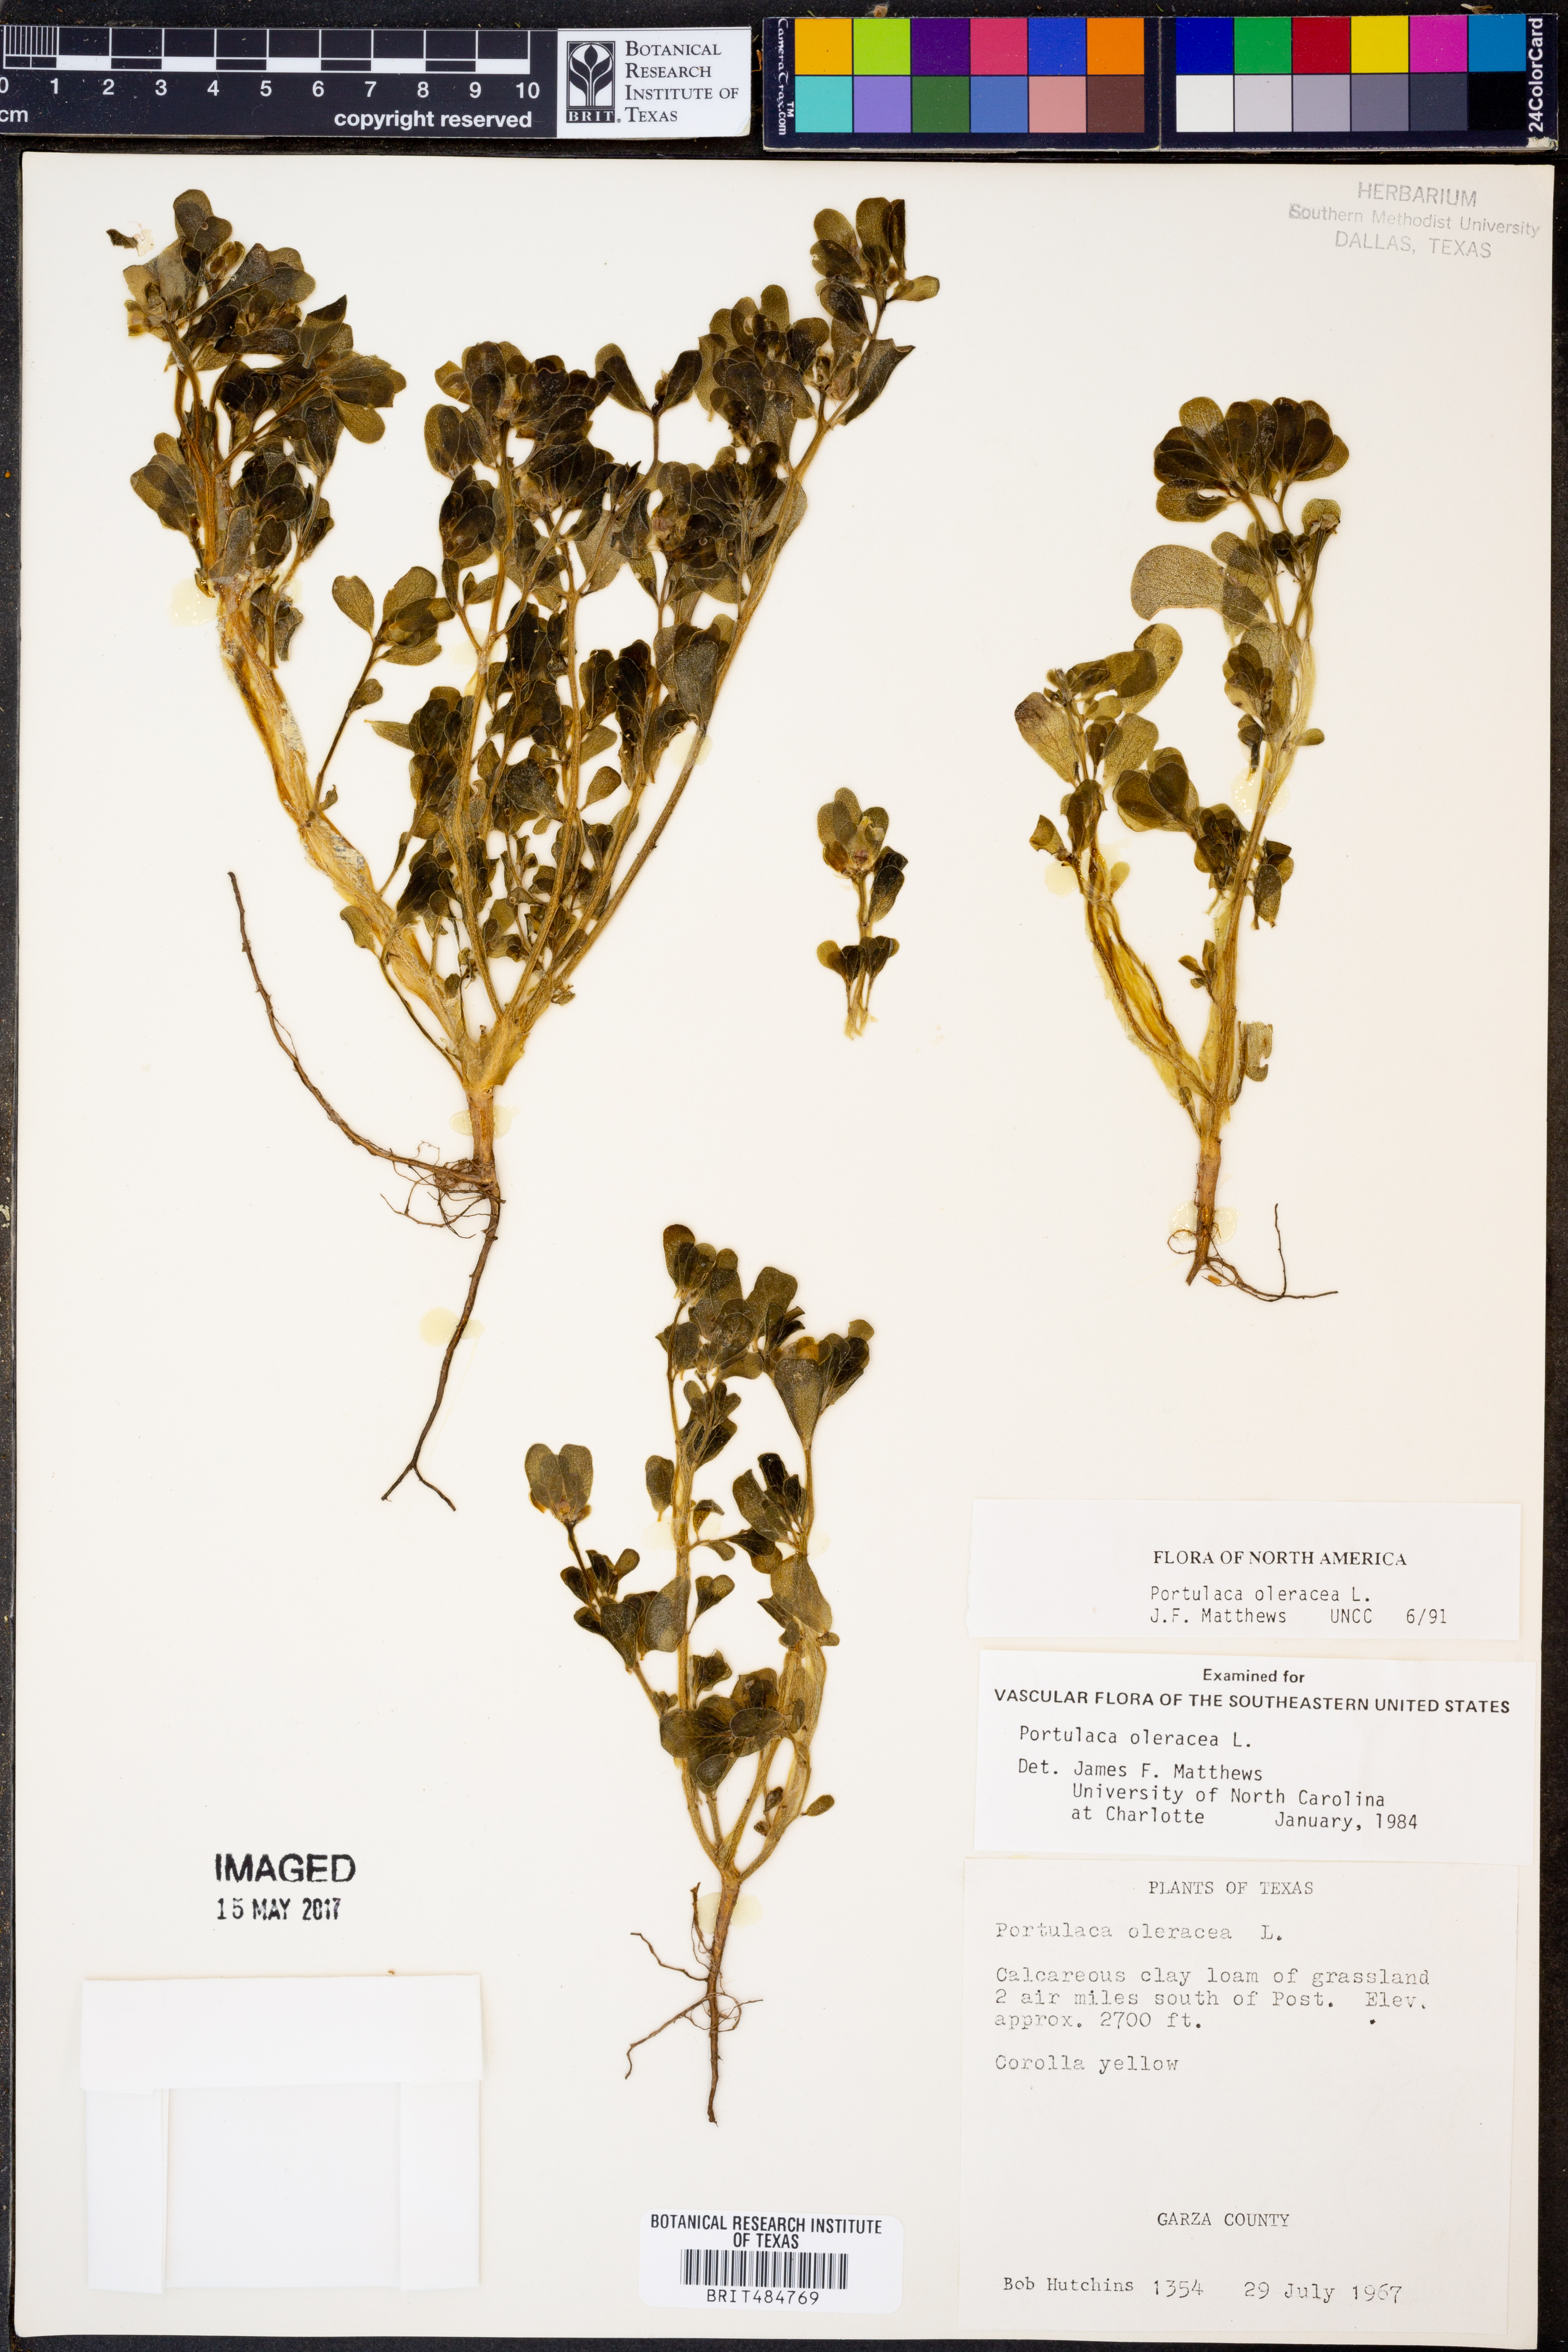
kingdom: Plantae
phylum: Tracheophyta
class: Magnoliopsida
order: Caryophyllales
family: Portulacaceae
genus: Portulaca
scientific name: Portulaca oleracea
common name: Common purslane
